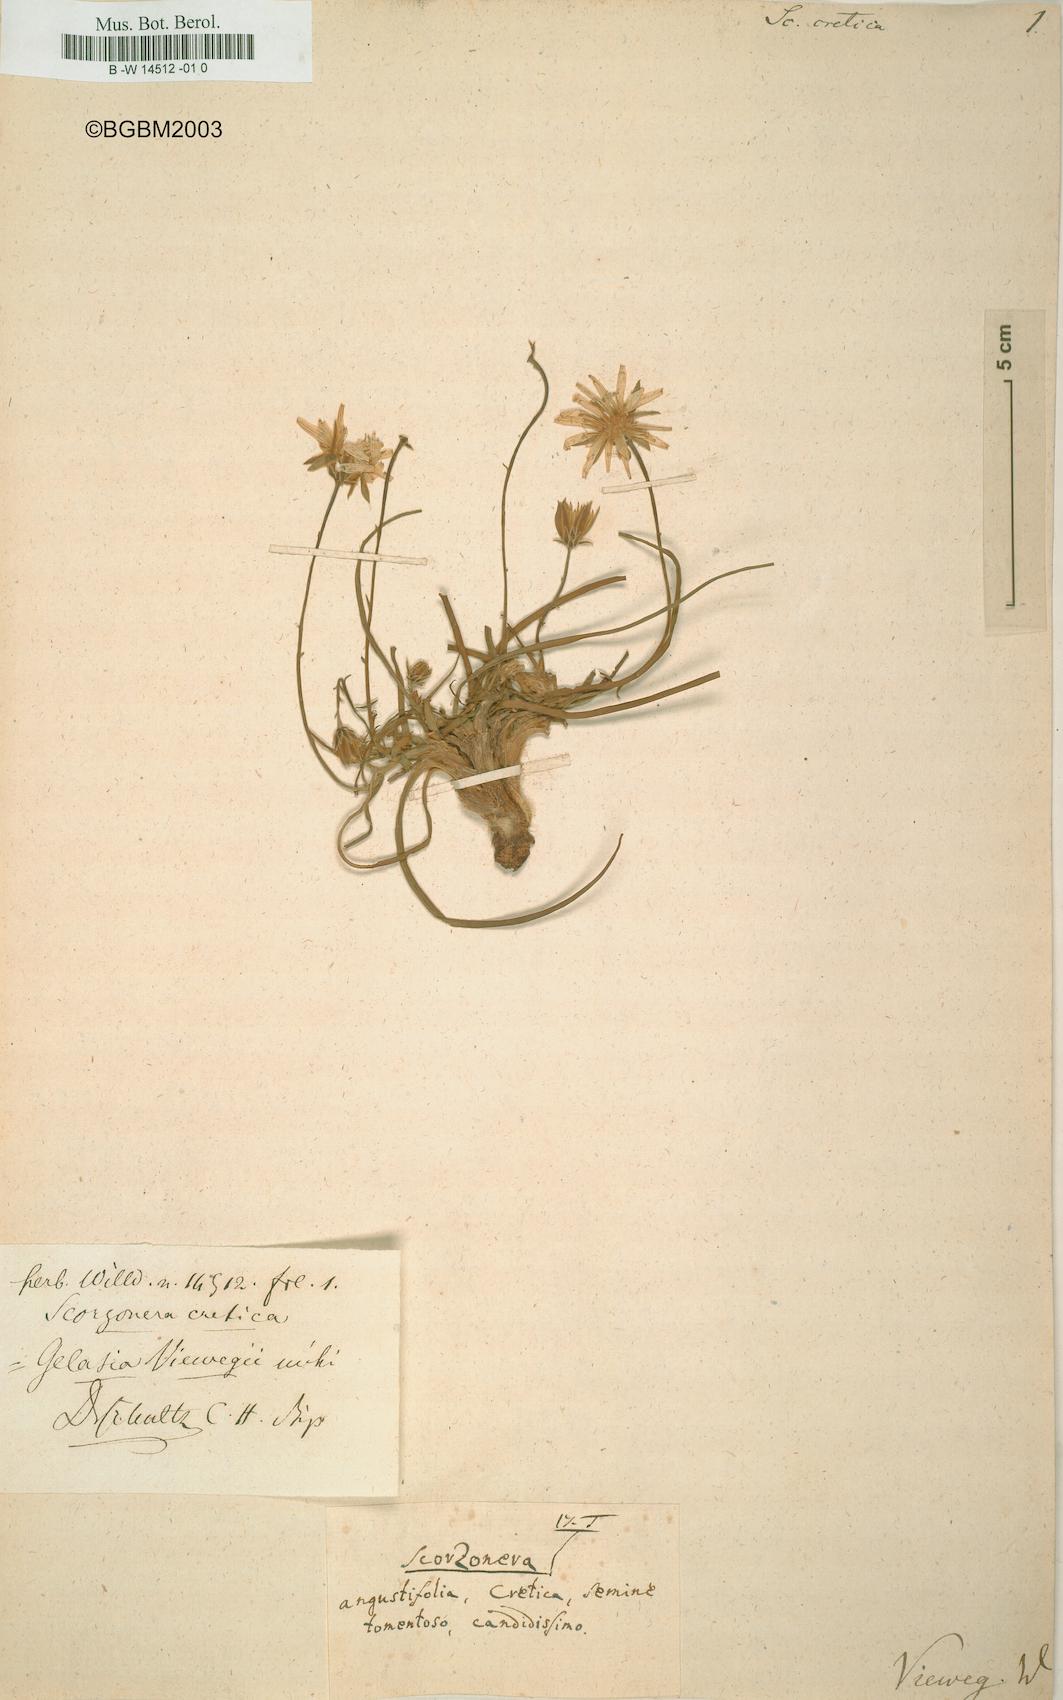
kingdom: Plantae
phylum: Tracheophyta
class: Magnoliopsida
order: Asterales
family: Asteraceae
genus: Gelasia
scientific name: Gelasia cretica
